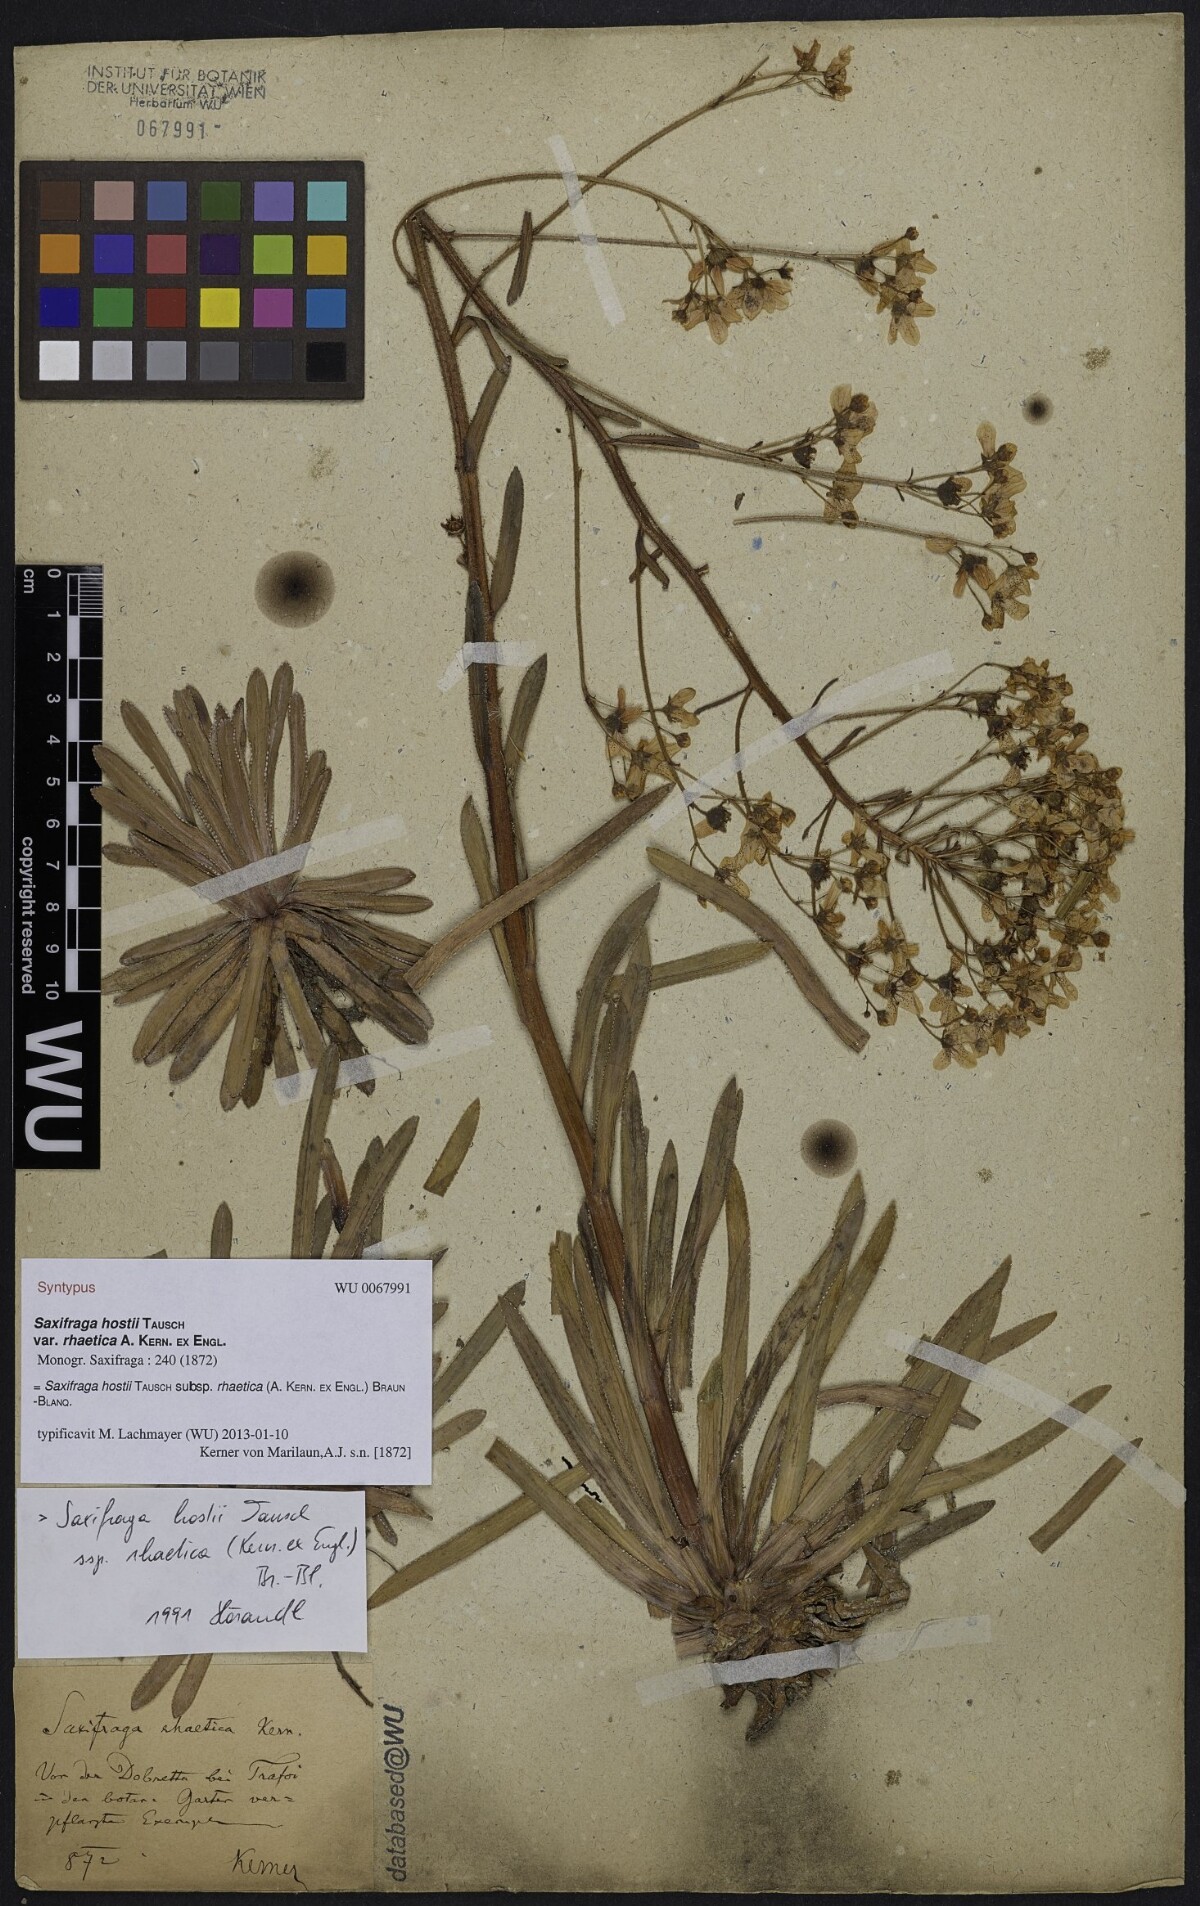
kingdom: Plantae
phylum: Tracheophyta
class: Magnoliopsida
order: Saxifragales
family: Saxifragaceae
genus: Saxifraga
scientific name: Saxifraga hostii
